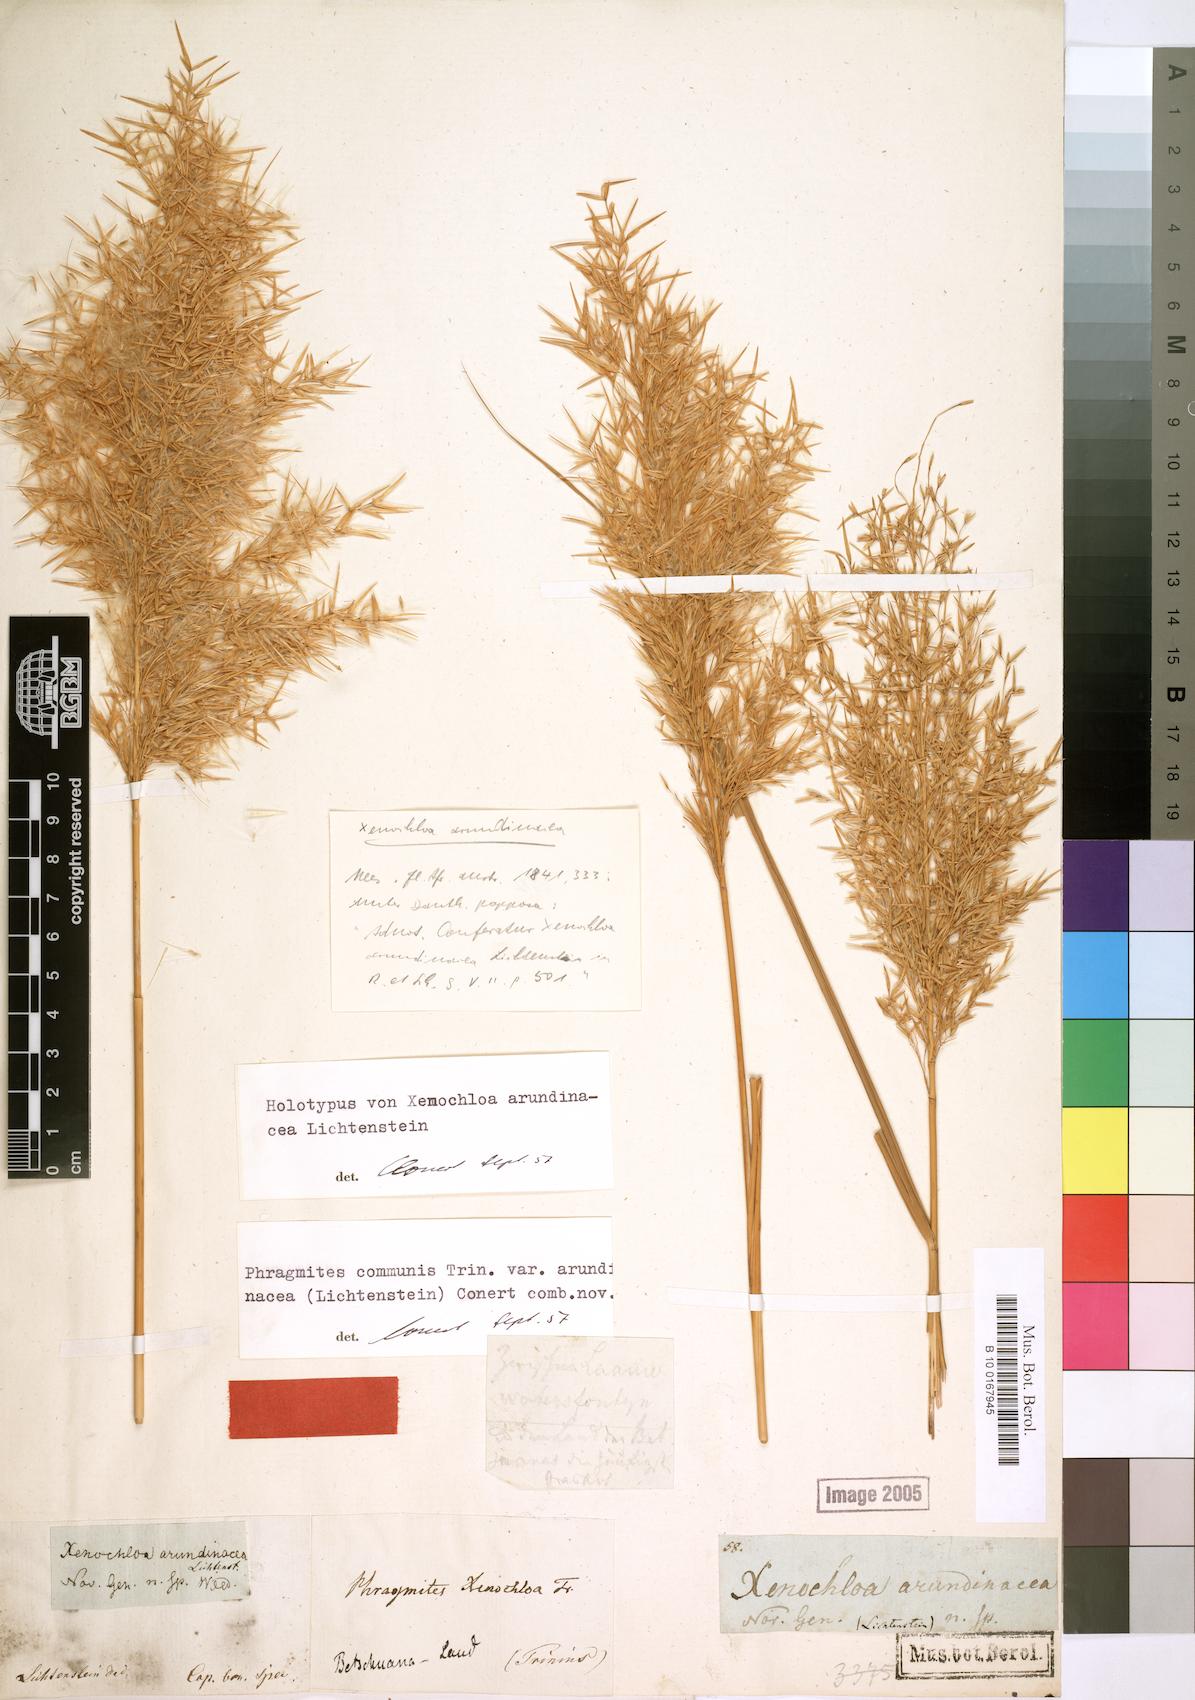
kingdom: Plantae
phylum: Tracheophyta
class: Liliopsida
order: Poales
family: Poaceae
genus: Phragmites
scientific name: Phragmites australis
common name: Common reed
